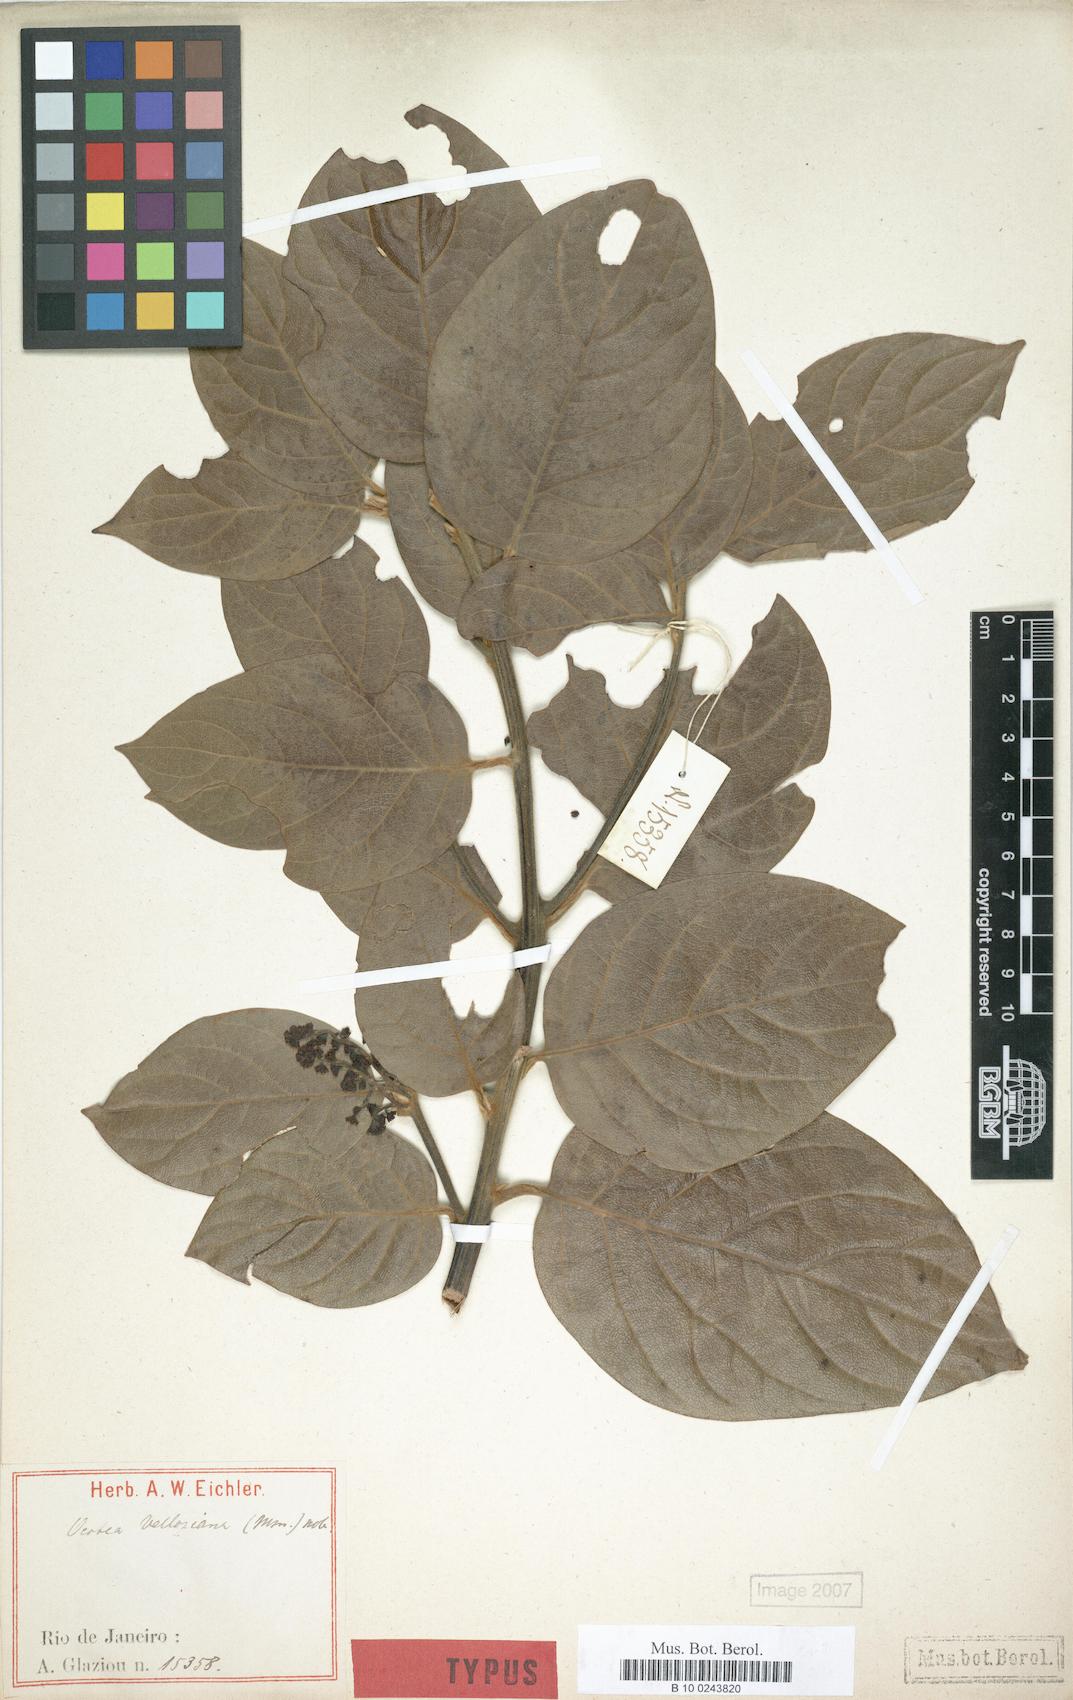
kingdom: Plantae
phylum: Tracheophyta
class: Magnoliopsida
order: Laurales
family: Lauraceae
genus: Ocotea
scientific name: Ocotea velloziana
